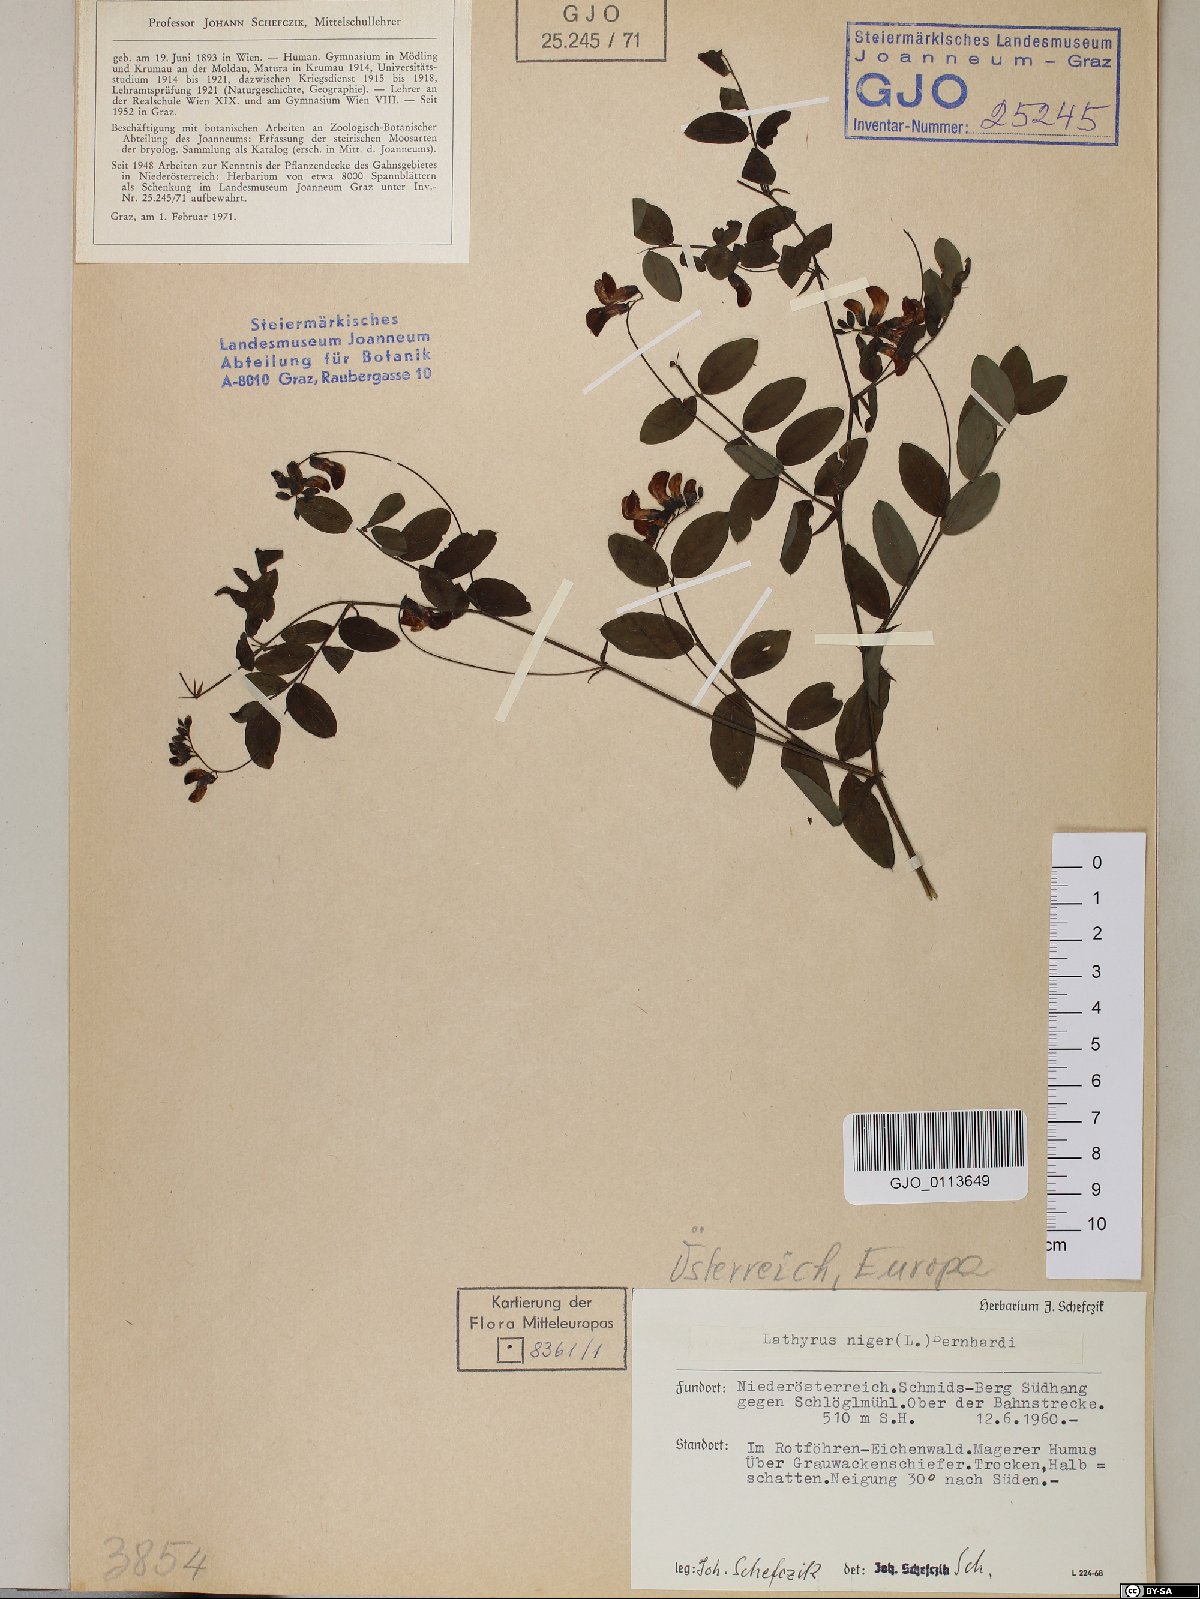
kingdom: Plantae
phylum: Tracheophyta
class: Magnoliopsida
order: Fabales
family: Fabaceae
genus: Lathyrus
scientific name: Lathyrus niger
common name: Black pea
